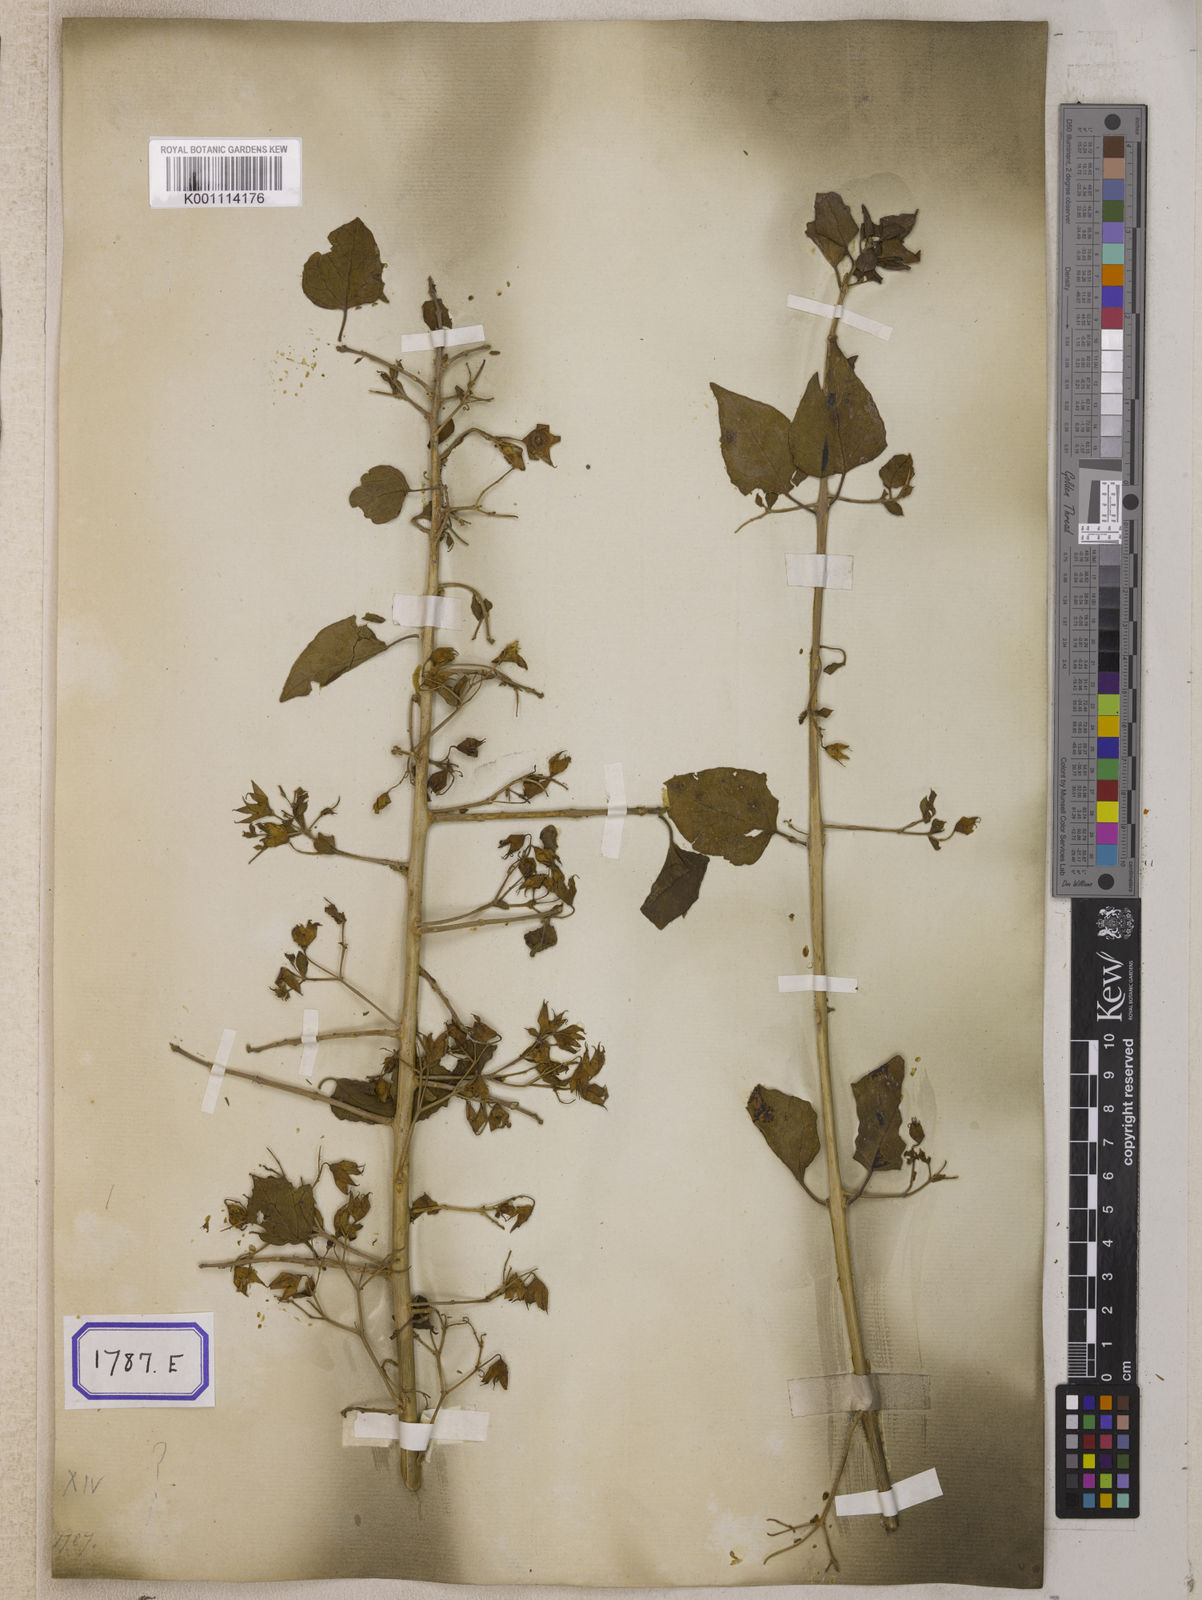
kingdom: Plantae
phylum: Tracheophyta
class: Magnoliopsida
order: Lamiales
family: Lamiaceae
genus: Clerodendrum
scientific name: Clerodendrum
